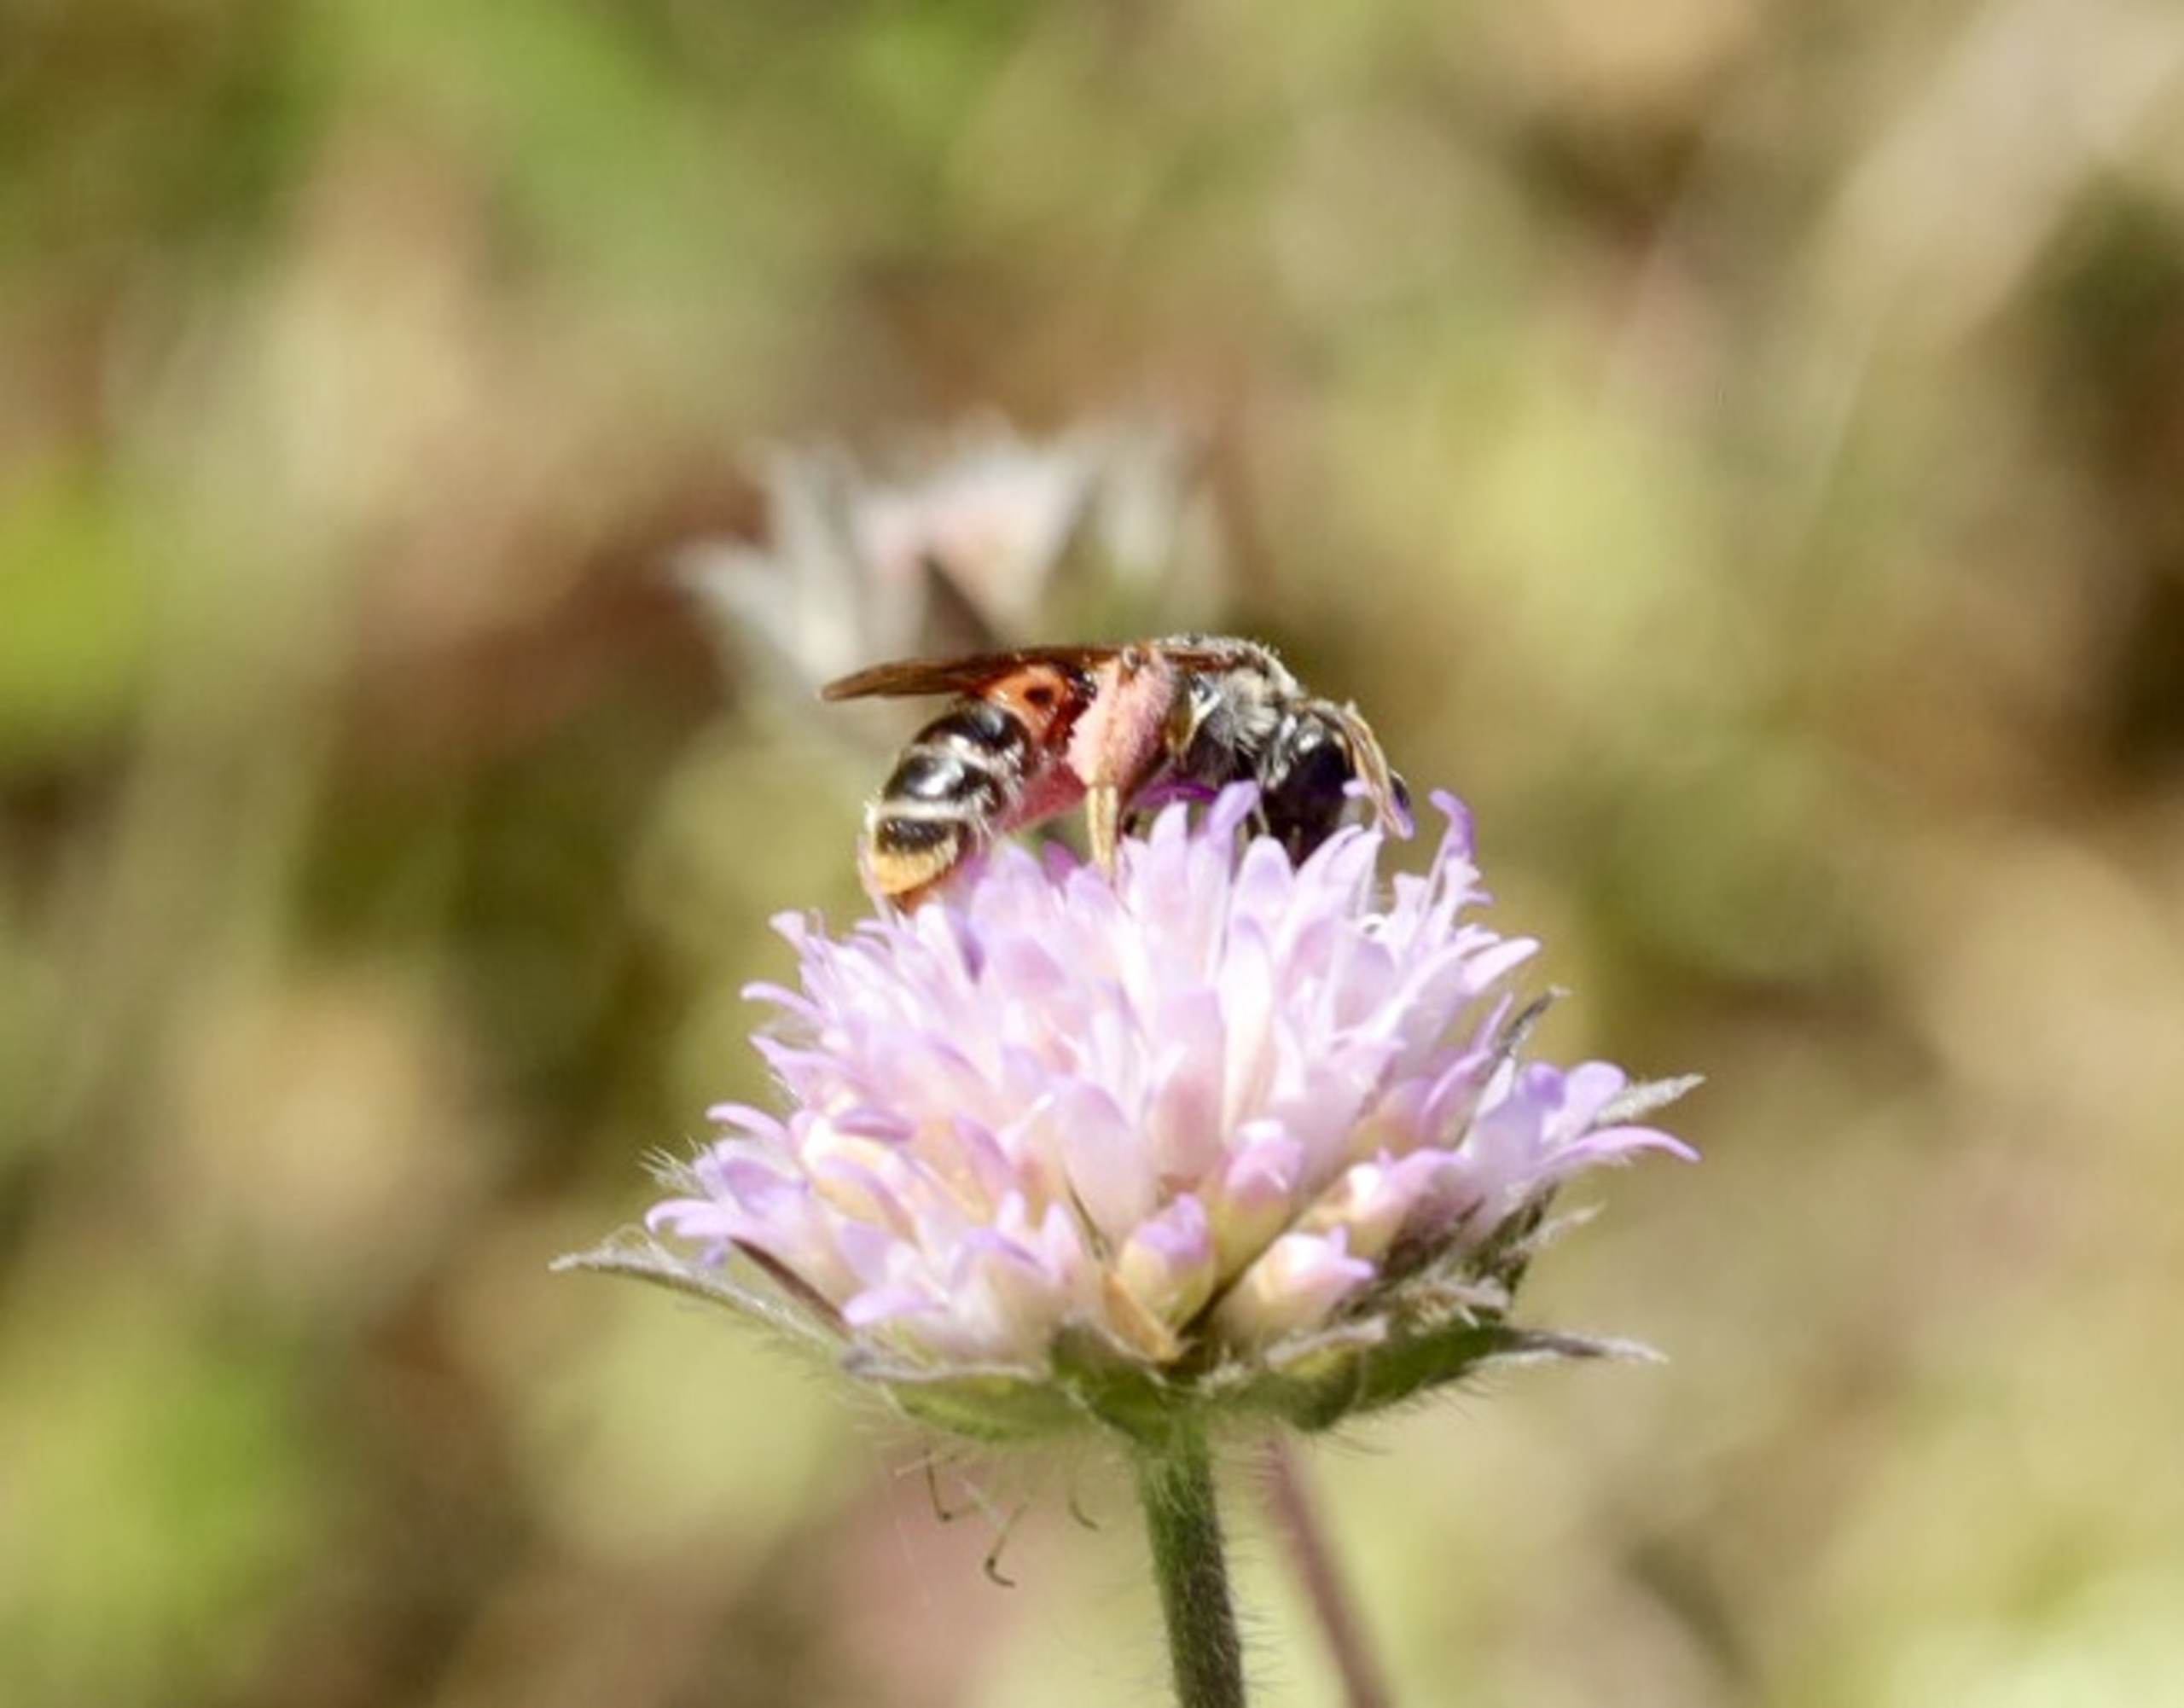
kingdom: Animalia
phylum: Arthropoda
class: Insecta
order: Hymenoptera
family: Andrenidae
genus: Andrena
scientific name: Andrena hattorfiana
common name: Blåhatjordbi
